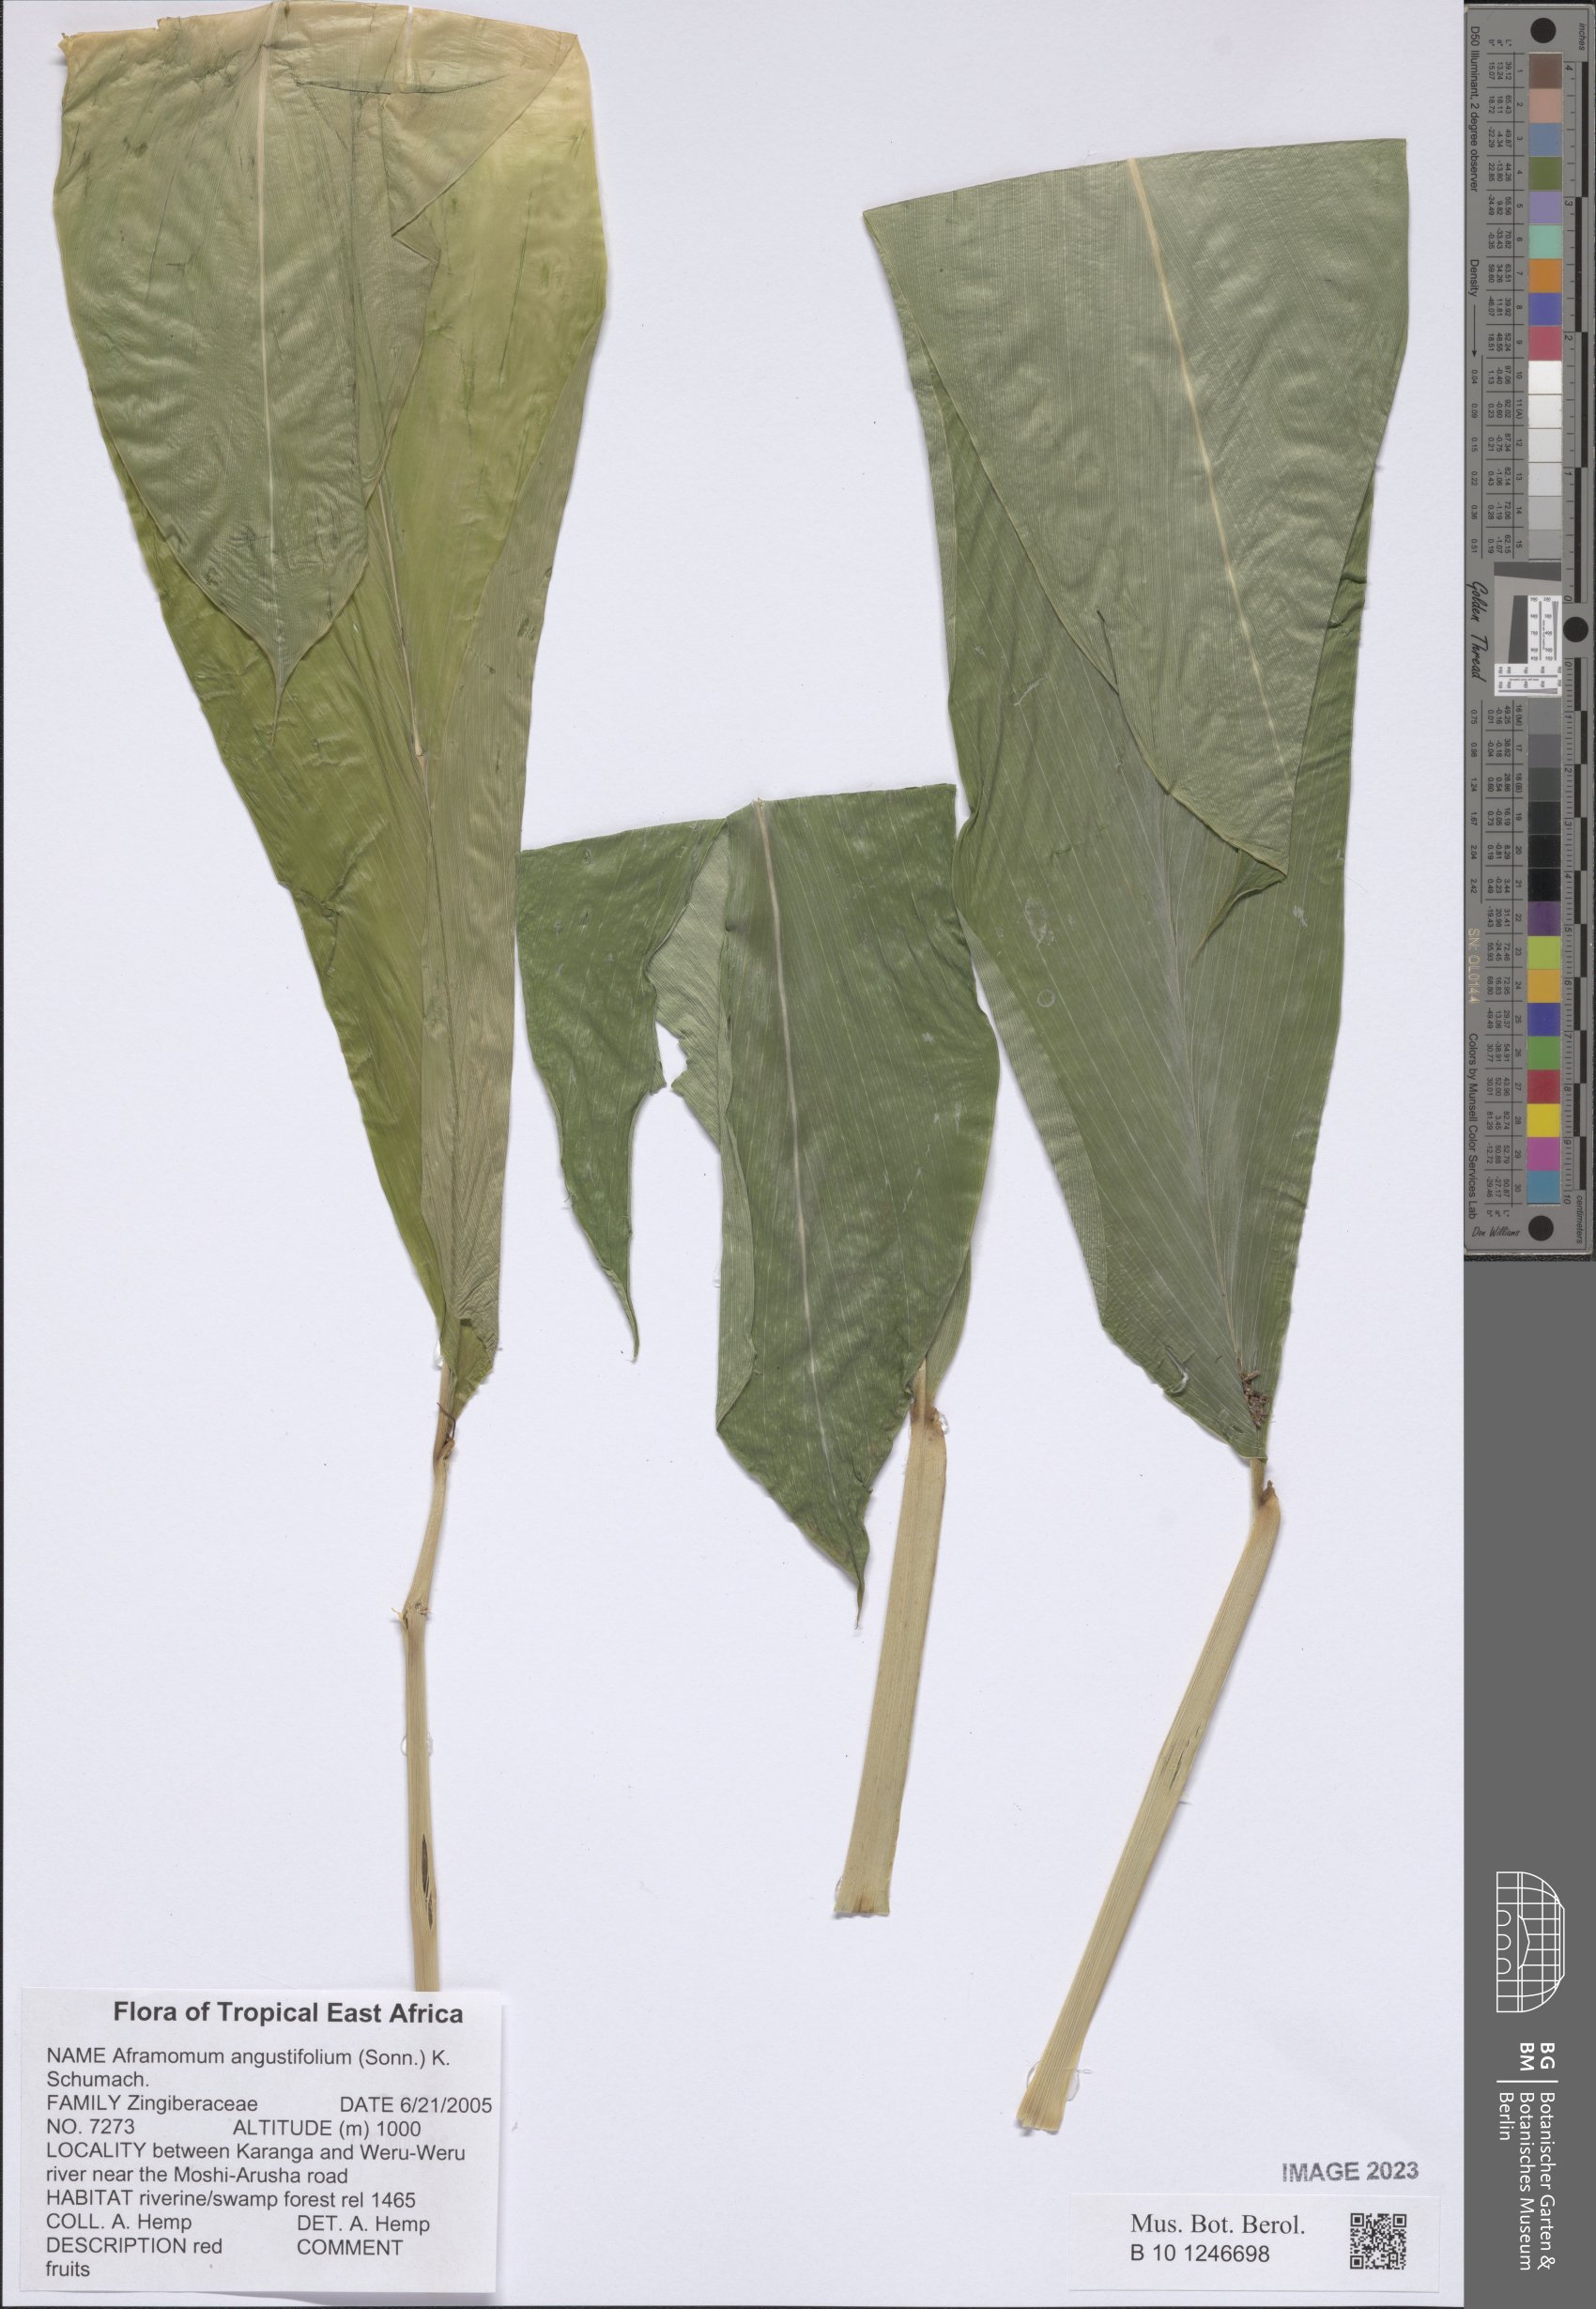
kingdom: Plantae
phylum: Tracheophyta
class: Liliopsida
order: Zingiberales
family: Zingiberaceae
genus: Aframomum
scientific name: Aframomum angustifolium
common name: Guinea grains
